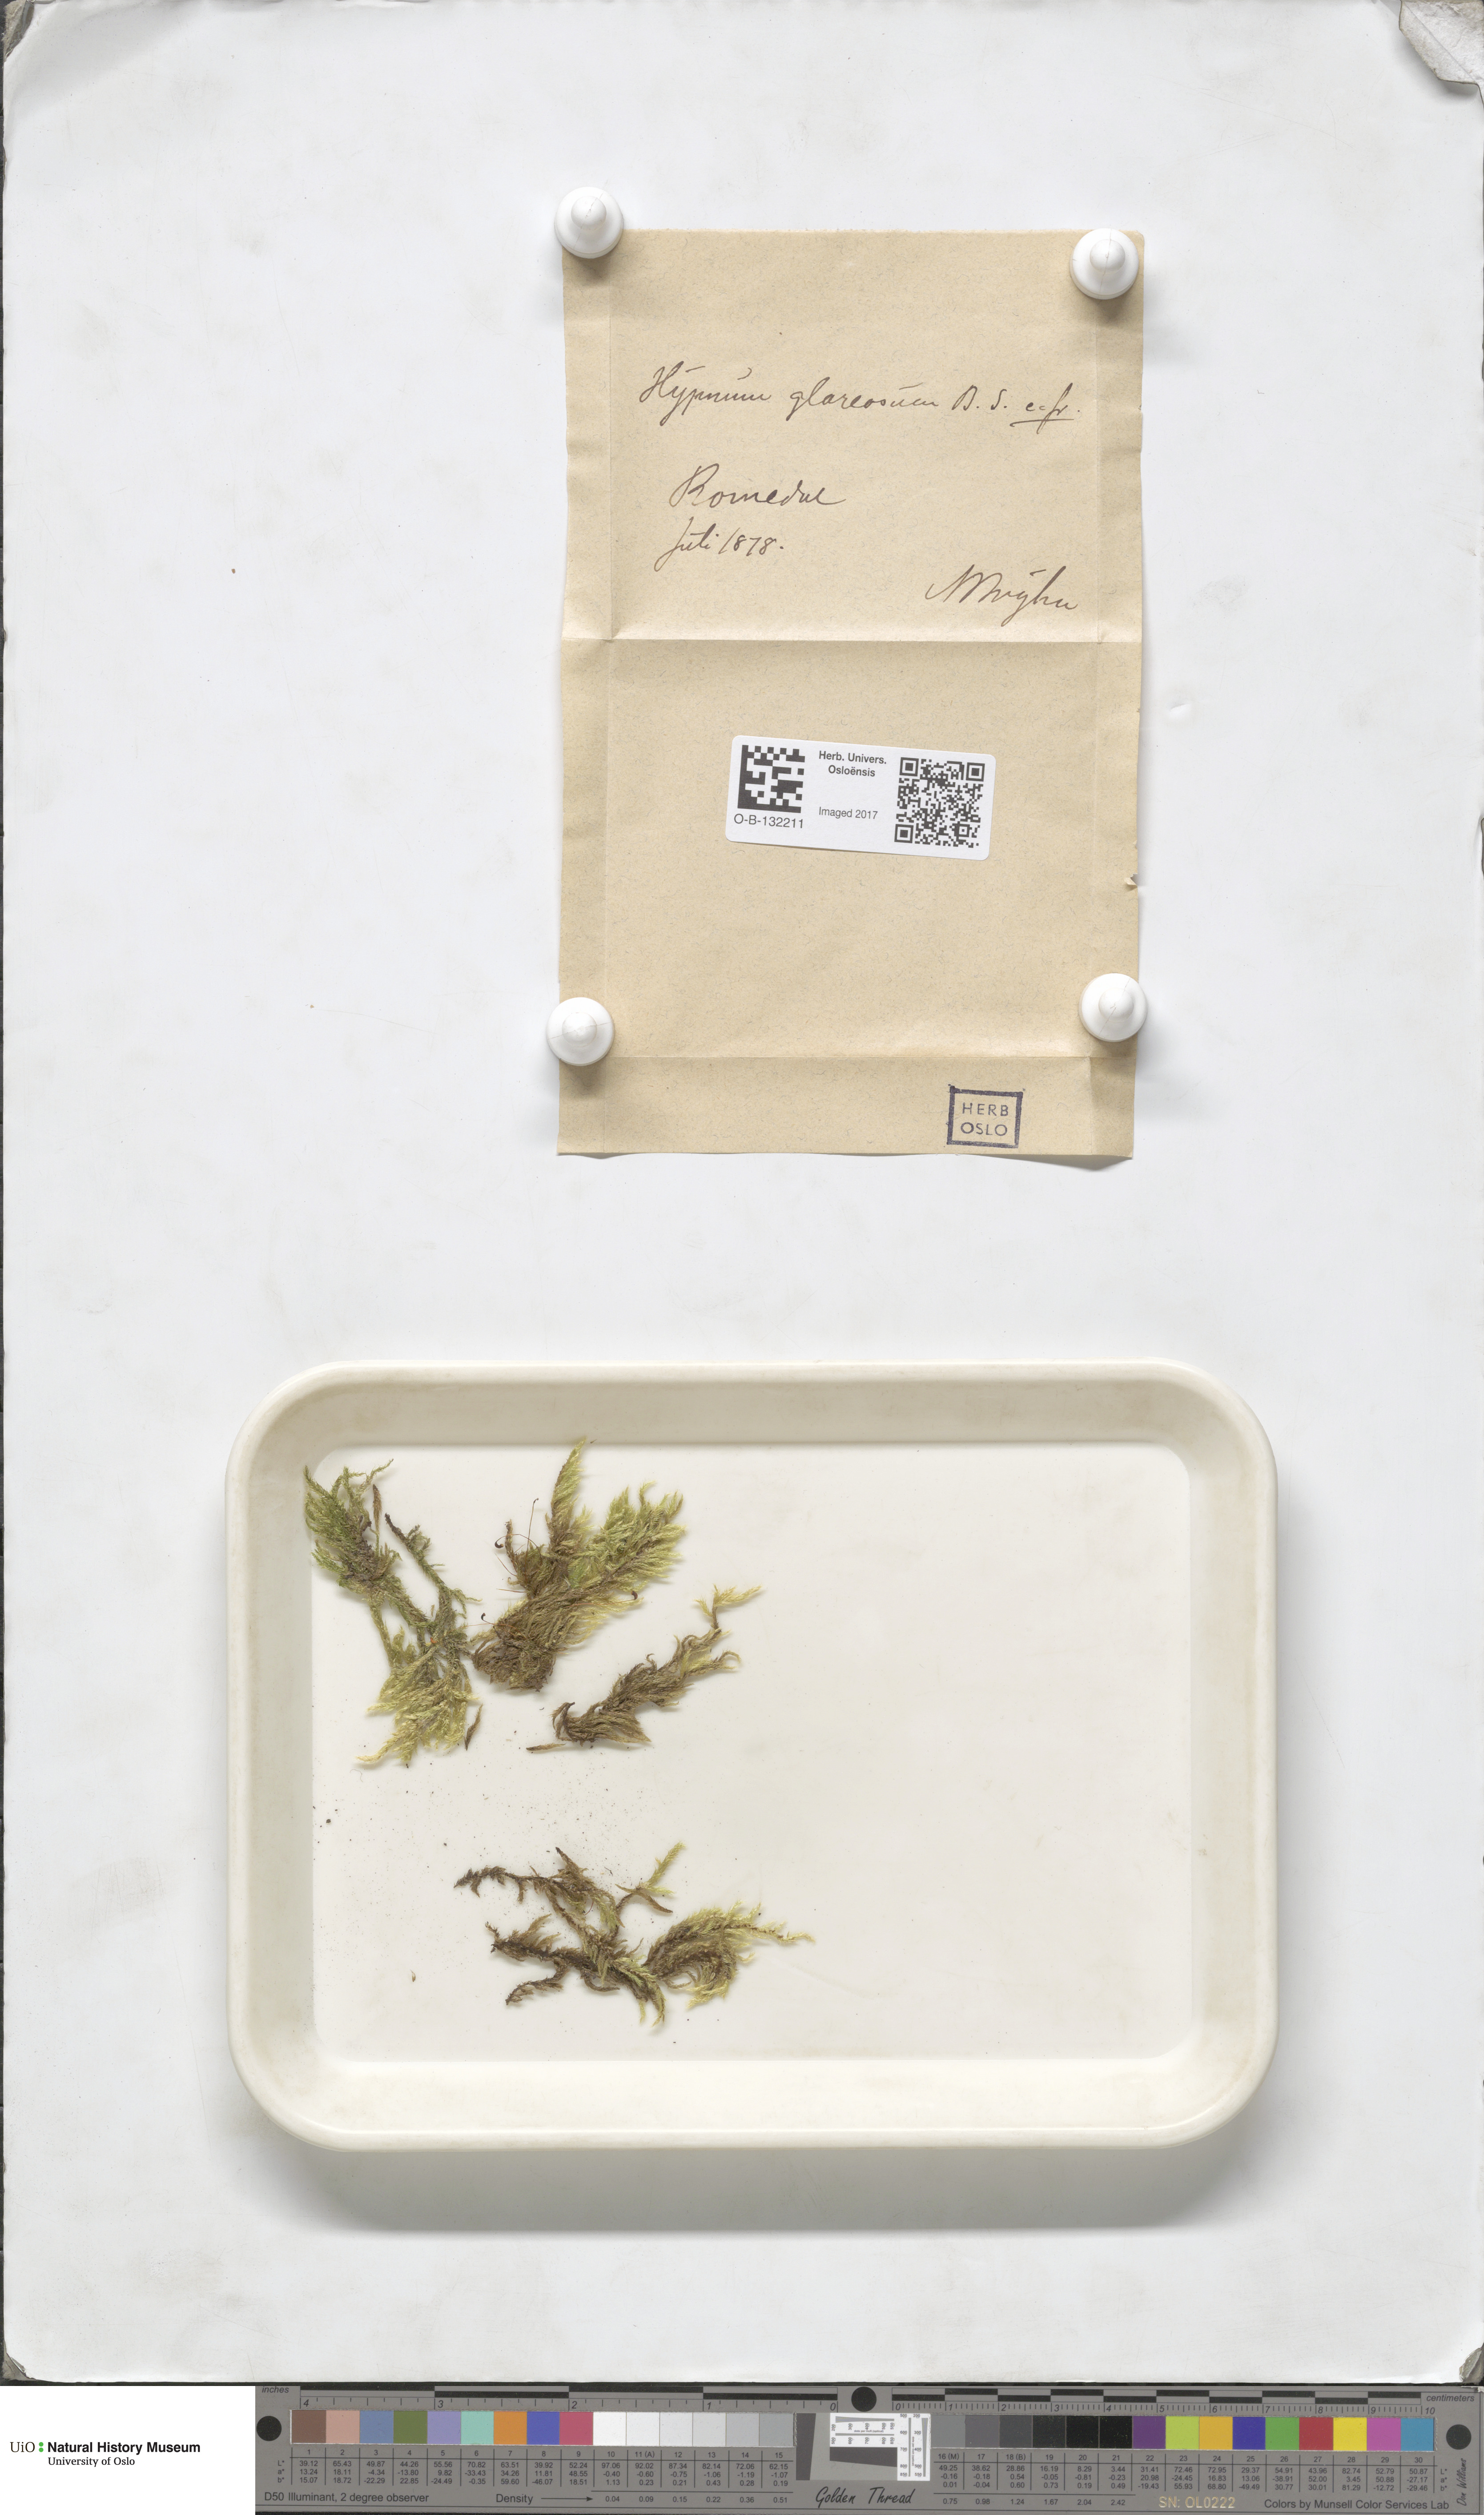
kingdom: Plantae
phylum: Bryophyta
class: Bryopsida
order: Hypnales
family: Brachytheciaceae
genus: Brachythecium
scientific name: Brachythecium glareosum
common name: Streaky feather-moss
